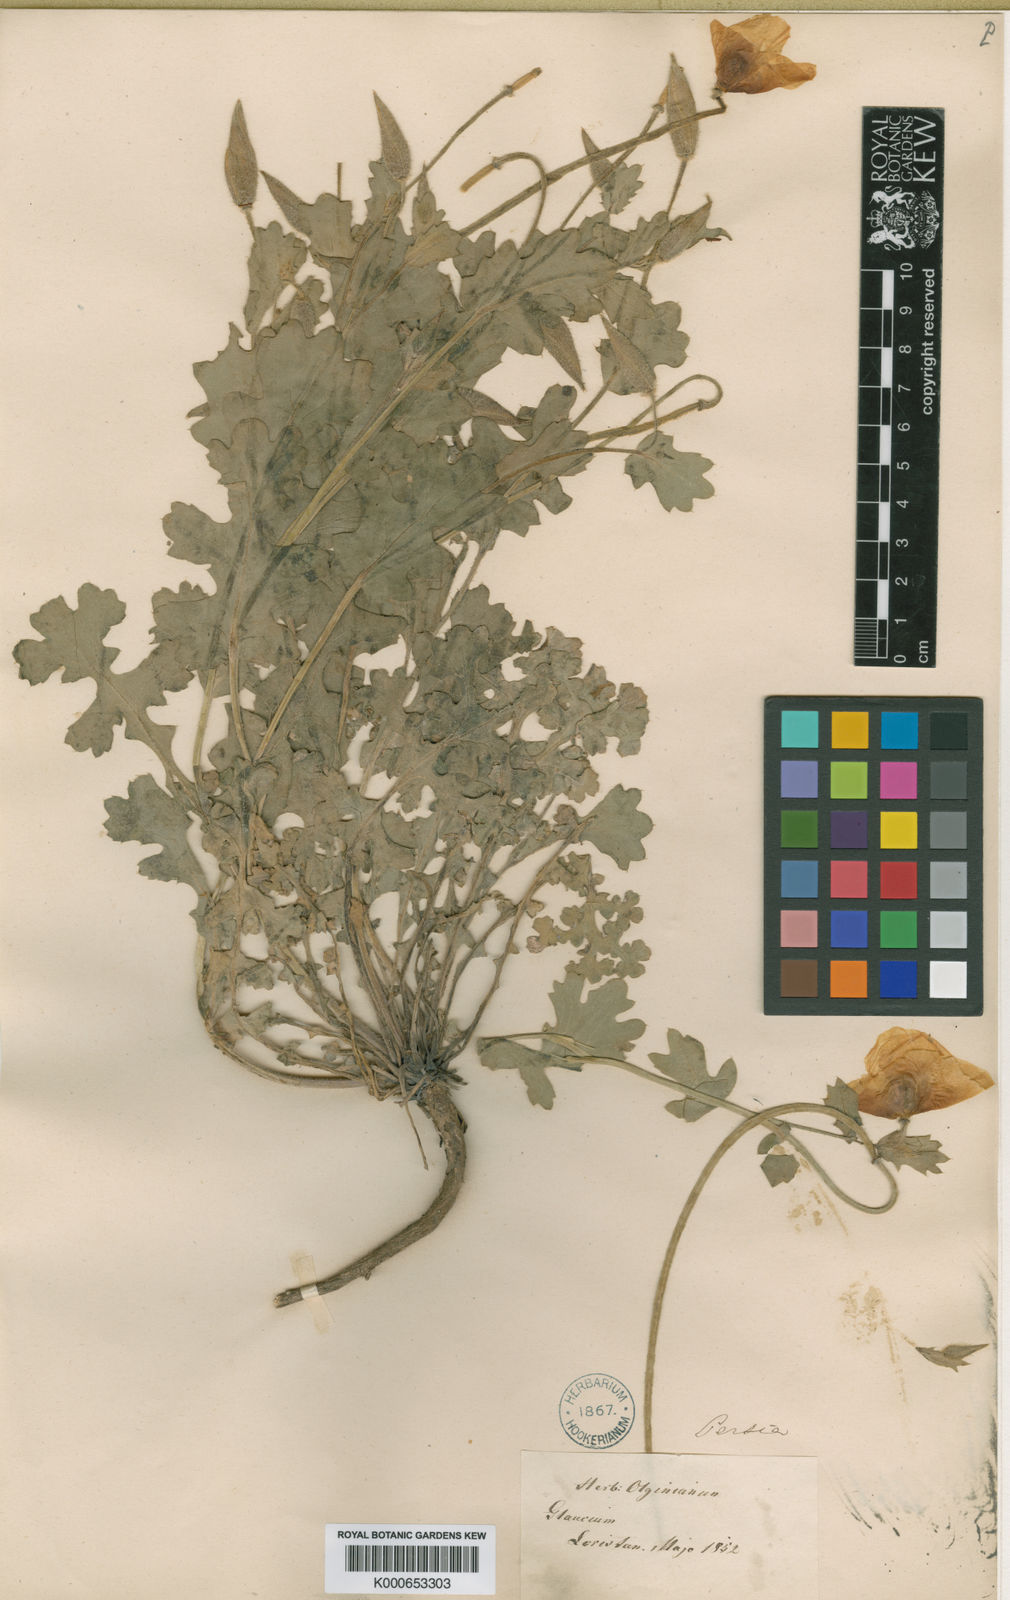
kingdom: Plantae
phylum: Tracheophyta
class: Magnoliopsida
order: Ranunculales
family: Papaveraceae
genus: Glaucium
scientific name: Glaucium grandiflorum
